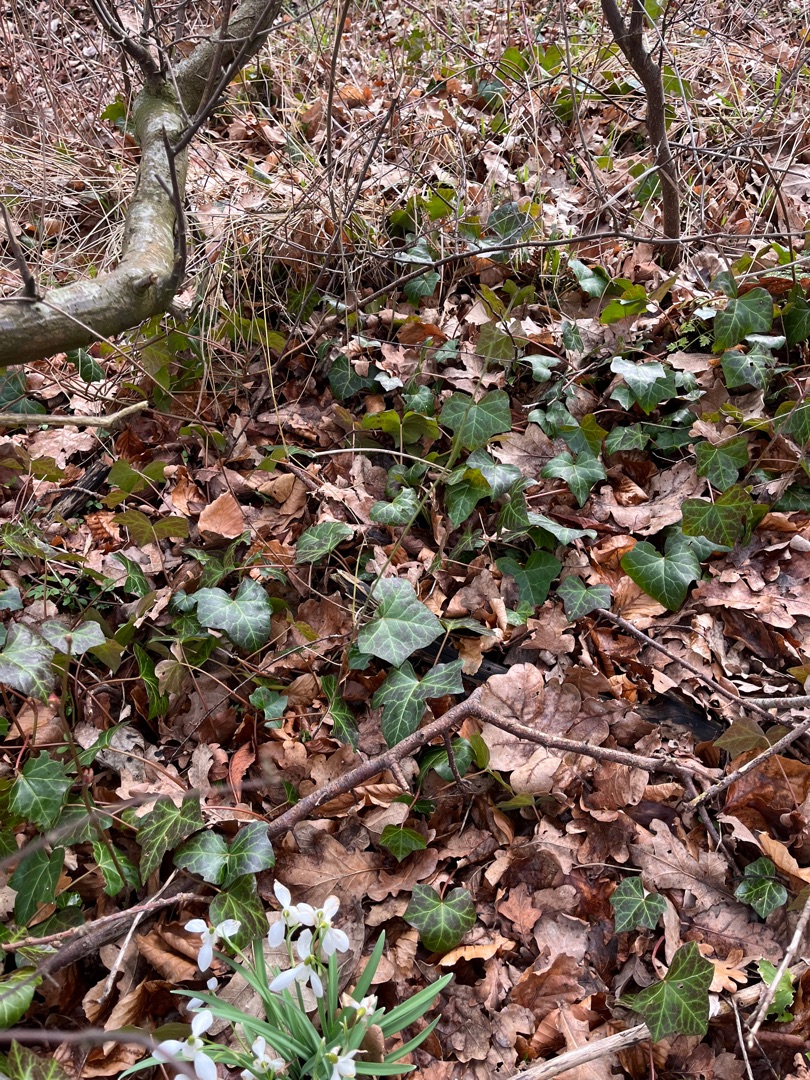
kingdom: Plantae
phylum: Tracheophyta
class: Magnoliopsida
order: Apiales
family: Araliaceae
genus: Hedera
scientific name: Hedera helix
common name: Vedbend
